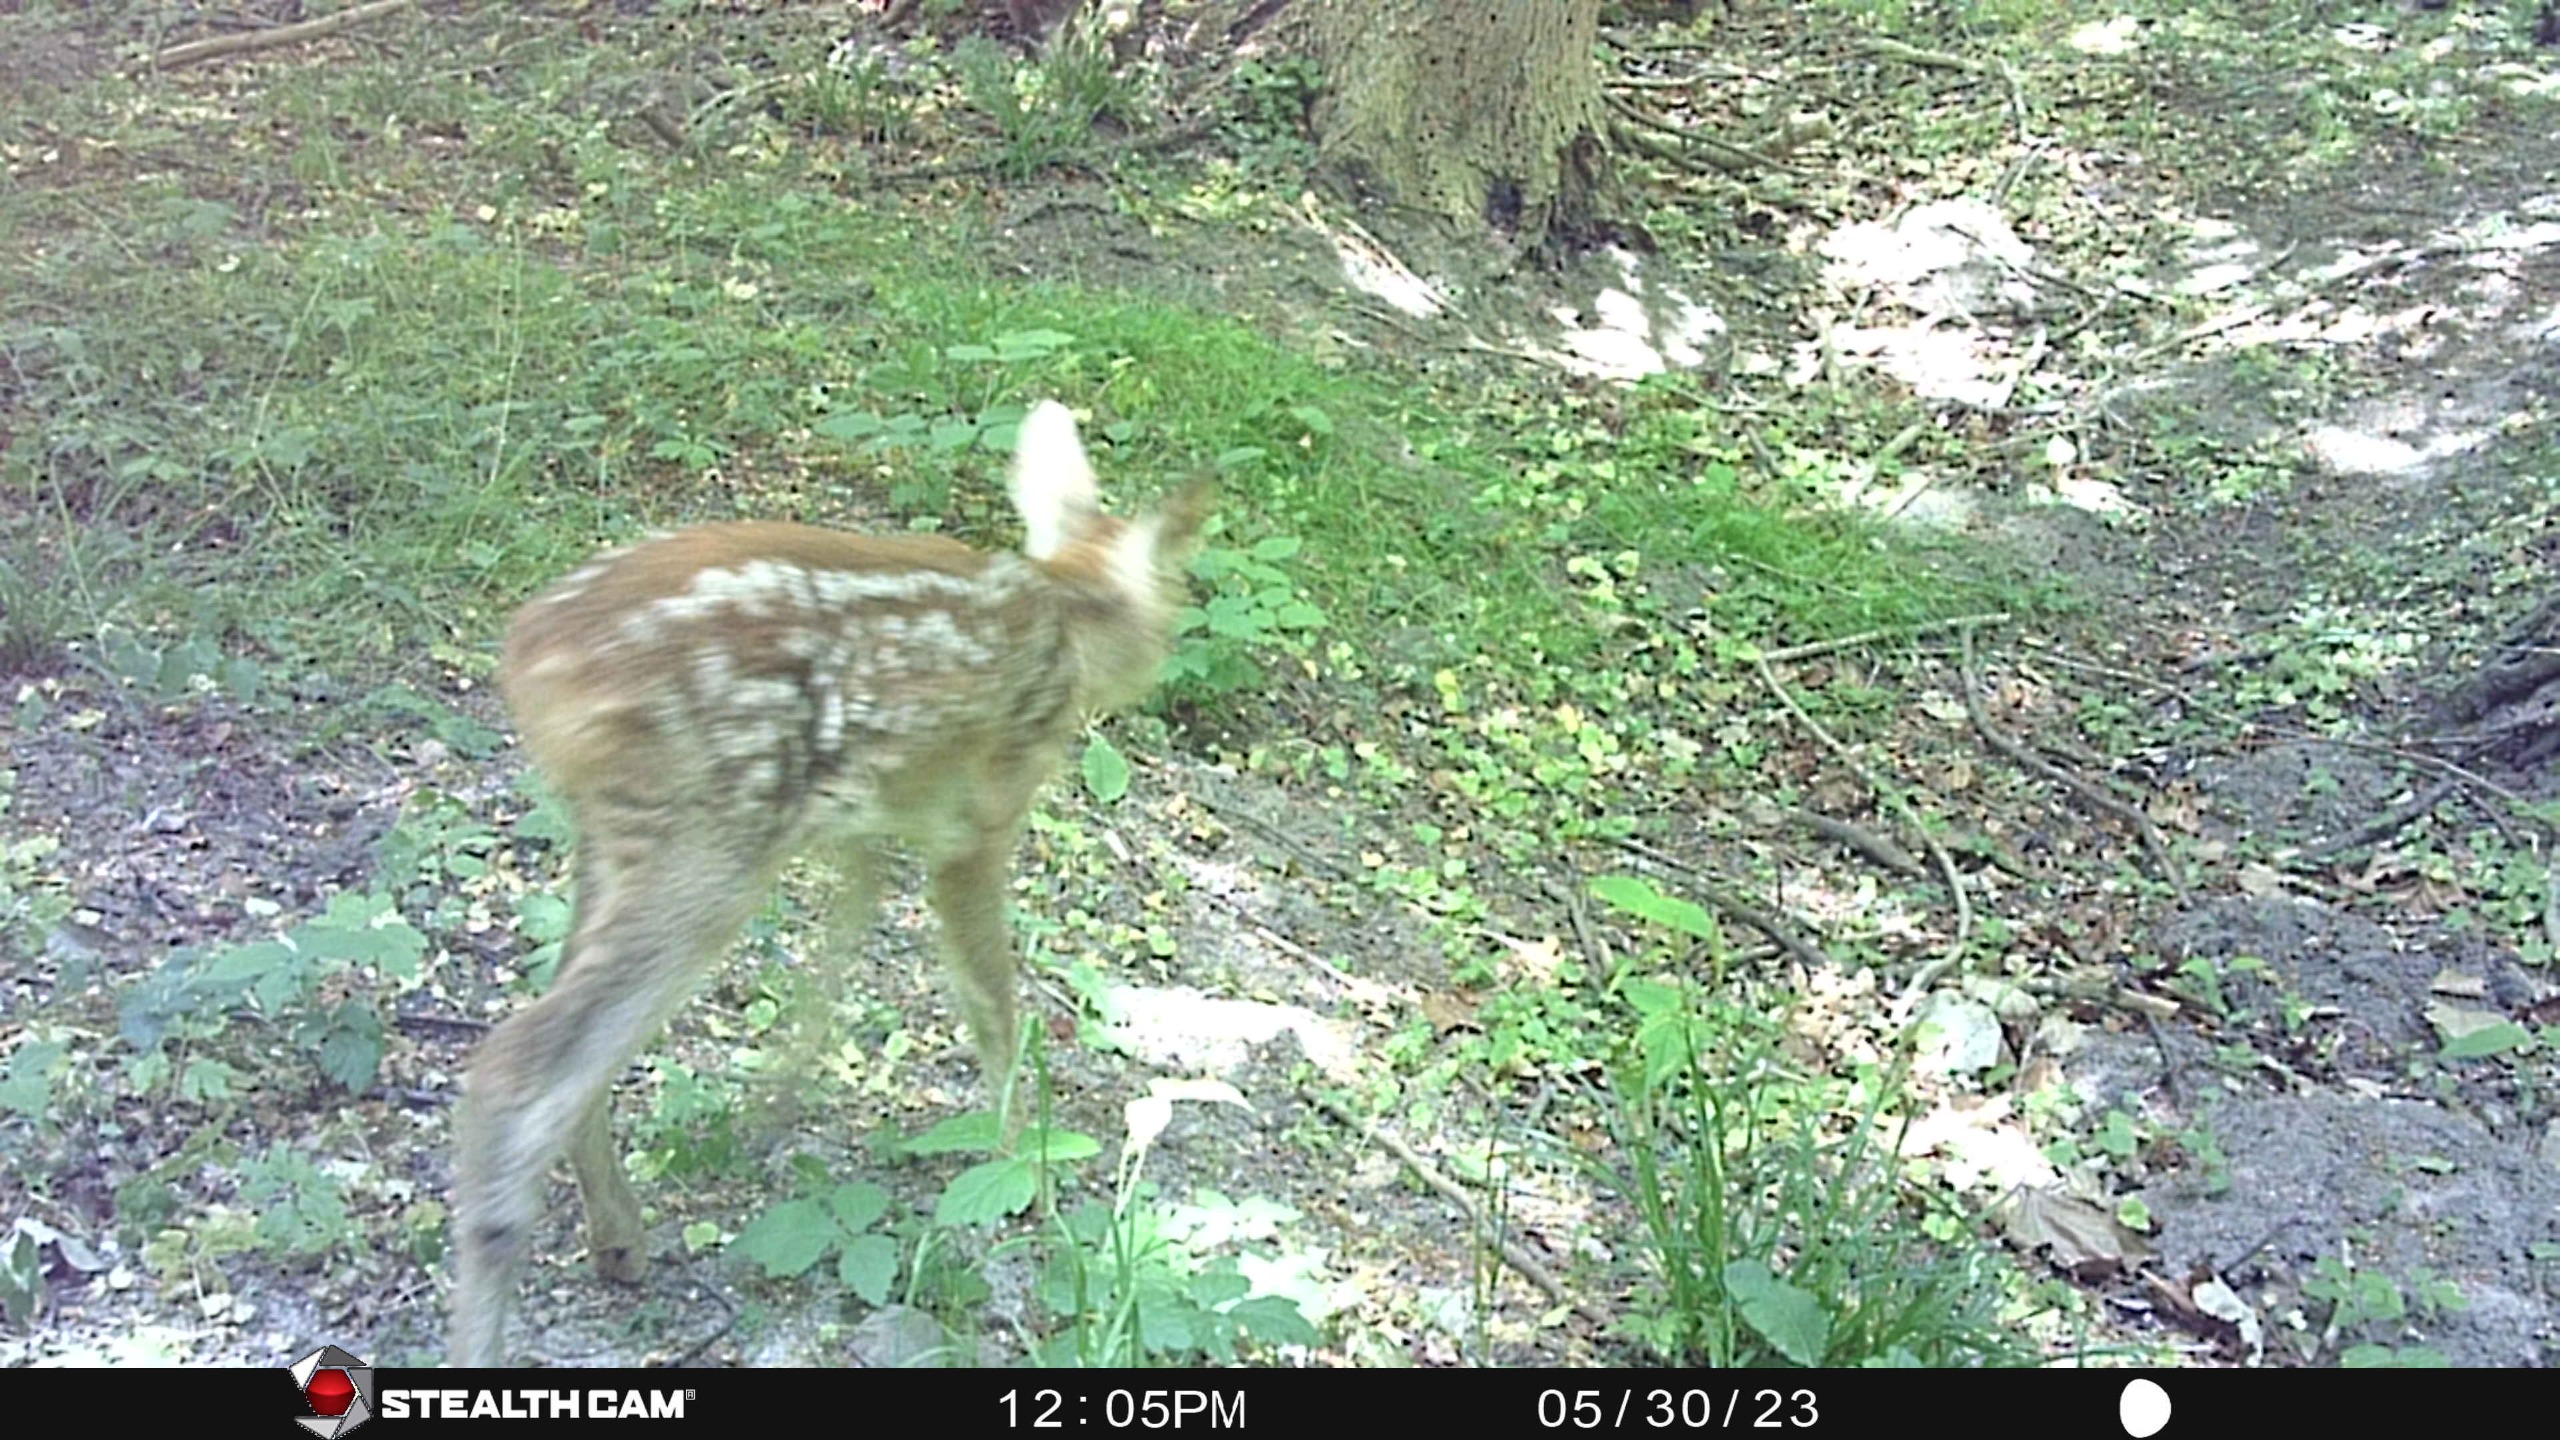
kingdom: Animalia
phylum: Chordata
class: Mammalia
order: Artiodactyla
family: Cervidae
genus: Capreolus
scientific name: Capreolus capreolus
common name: Rådyr
